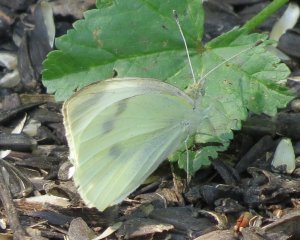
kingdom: Animalia
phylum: Arthropoda
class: Insecta
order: Lepidoptera
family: Pieridae
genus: Pieris
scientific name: Pieris rapae
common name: Cabbage White
